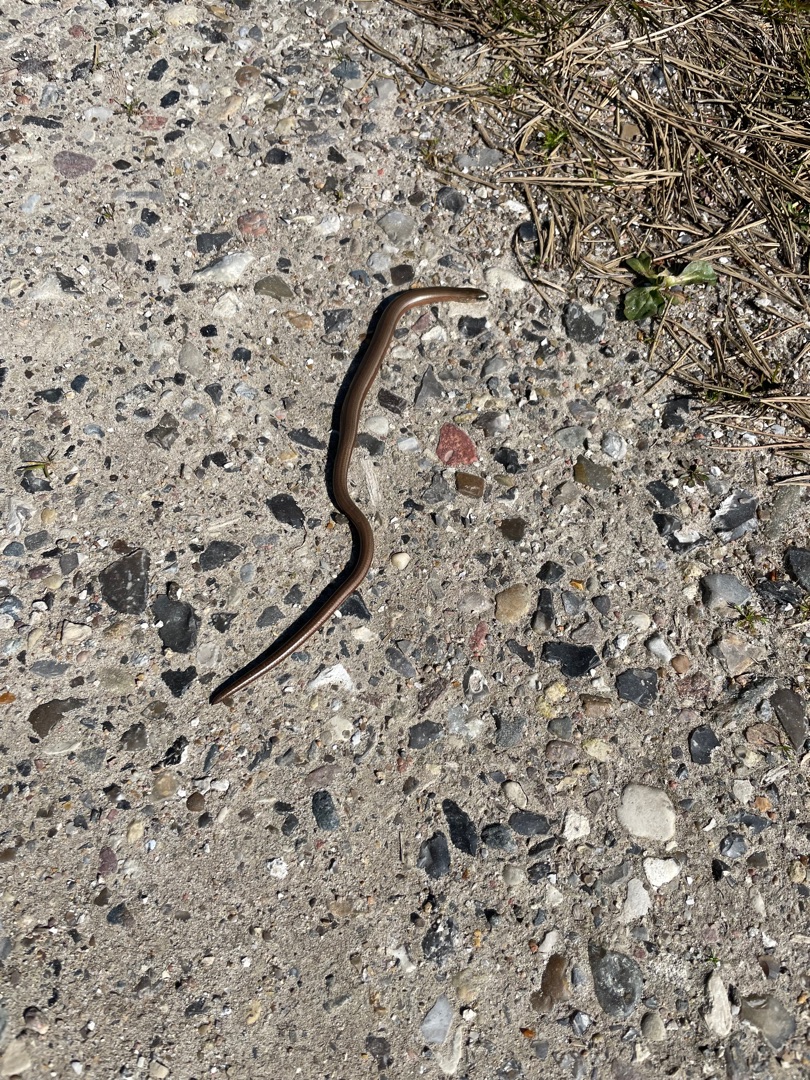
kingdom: Animalia
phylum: Chordata
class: Squamata
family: Anguidae
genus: Anguis
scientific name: Anguis fragilis
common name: Stålorm
